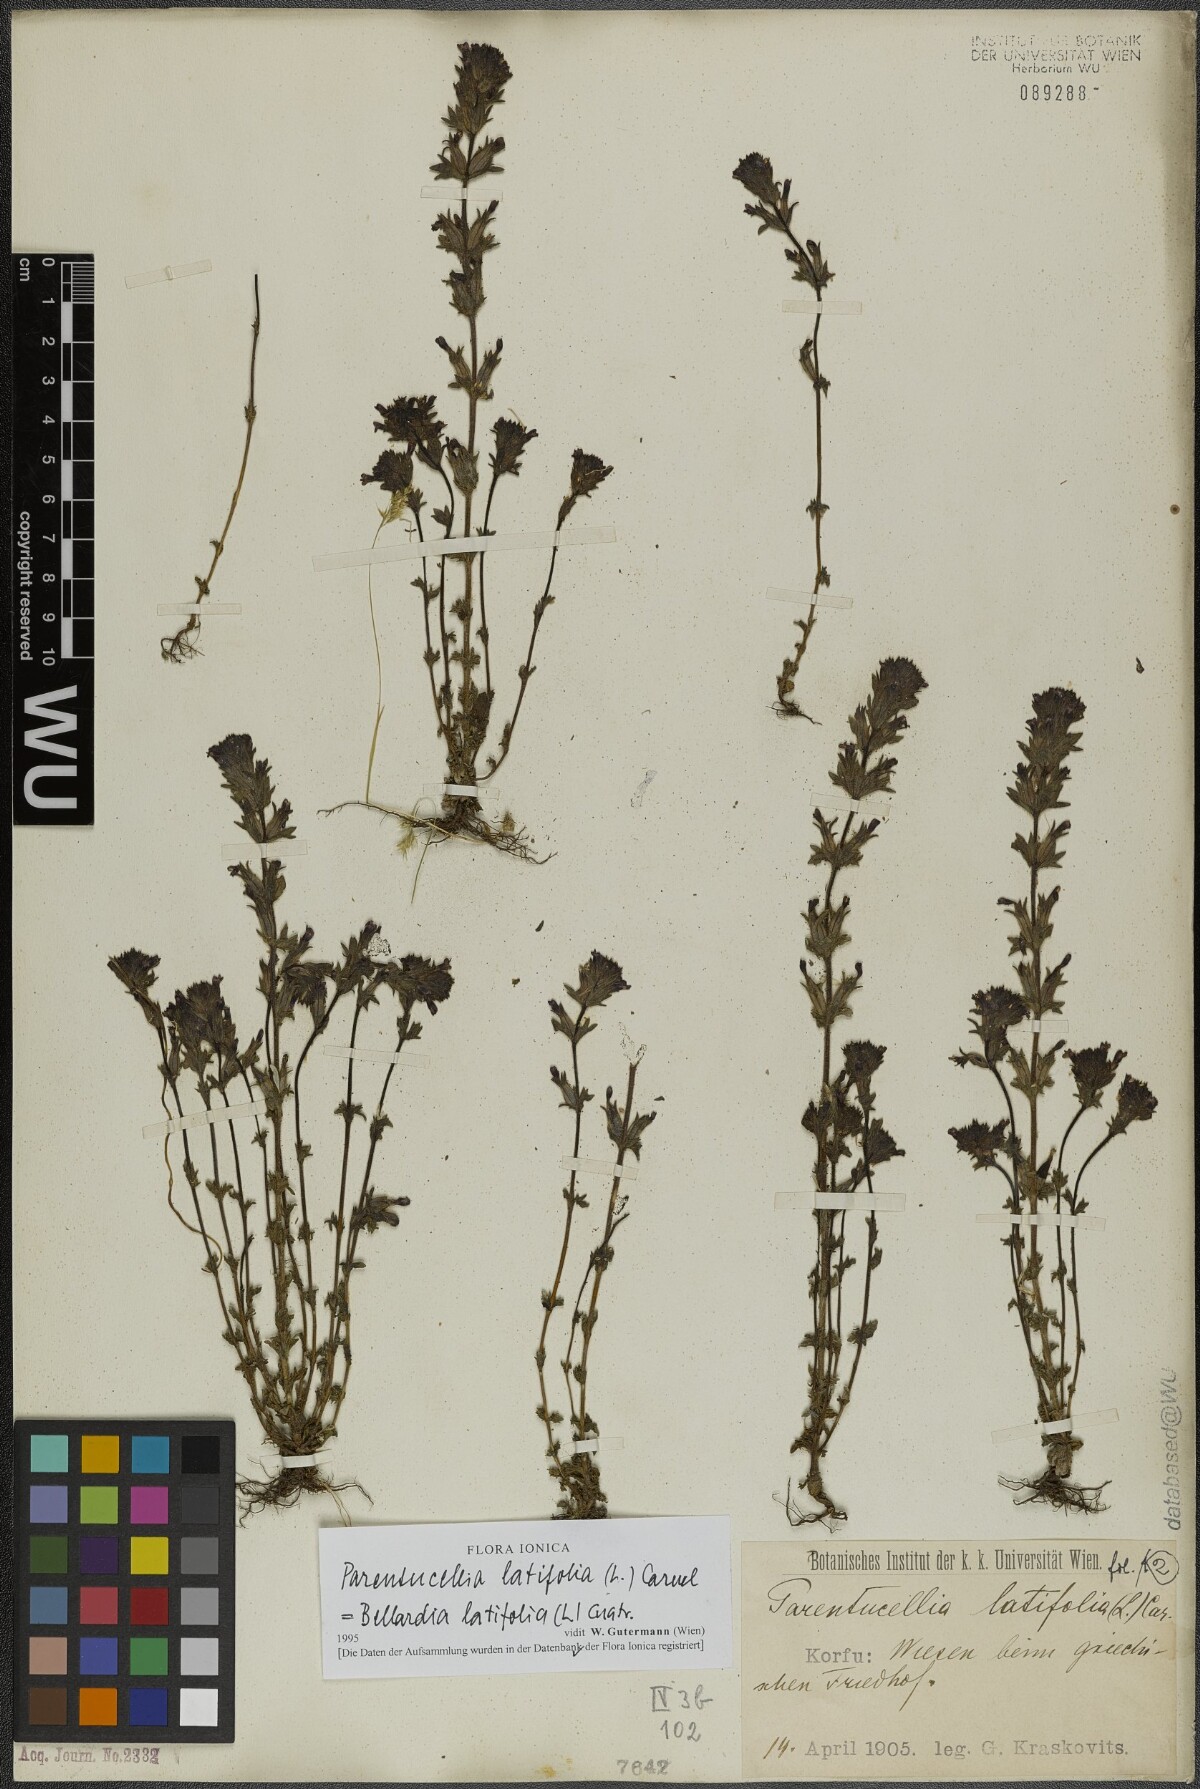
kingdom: Plantae
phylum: Tracheophyta
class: Magnoliopsida
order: Lamiales
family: Orobanchaceae
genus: Parentucellia
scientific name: Parentucellia latifolia
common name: Broadleaf glandweed
